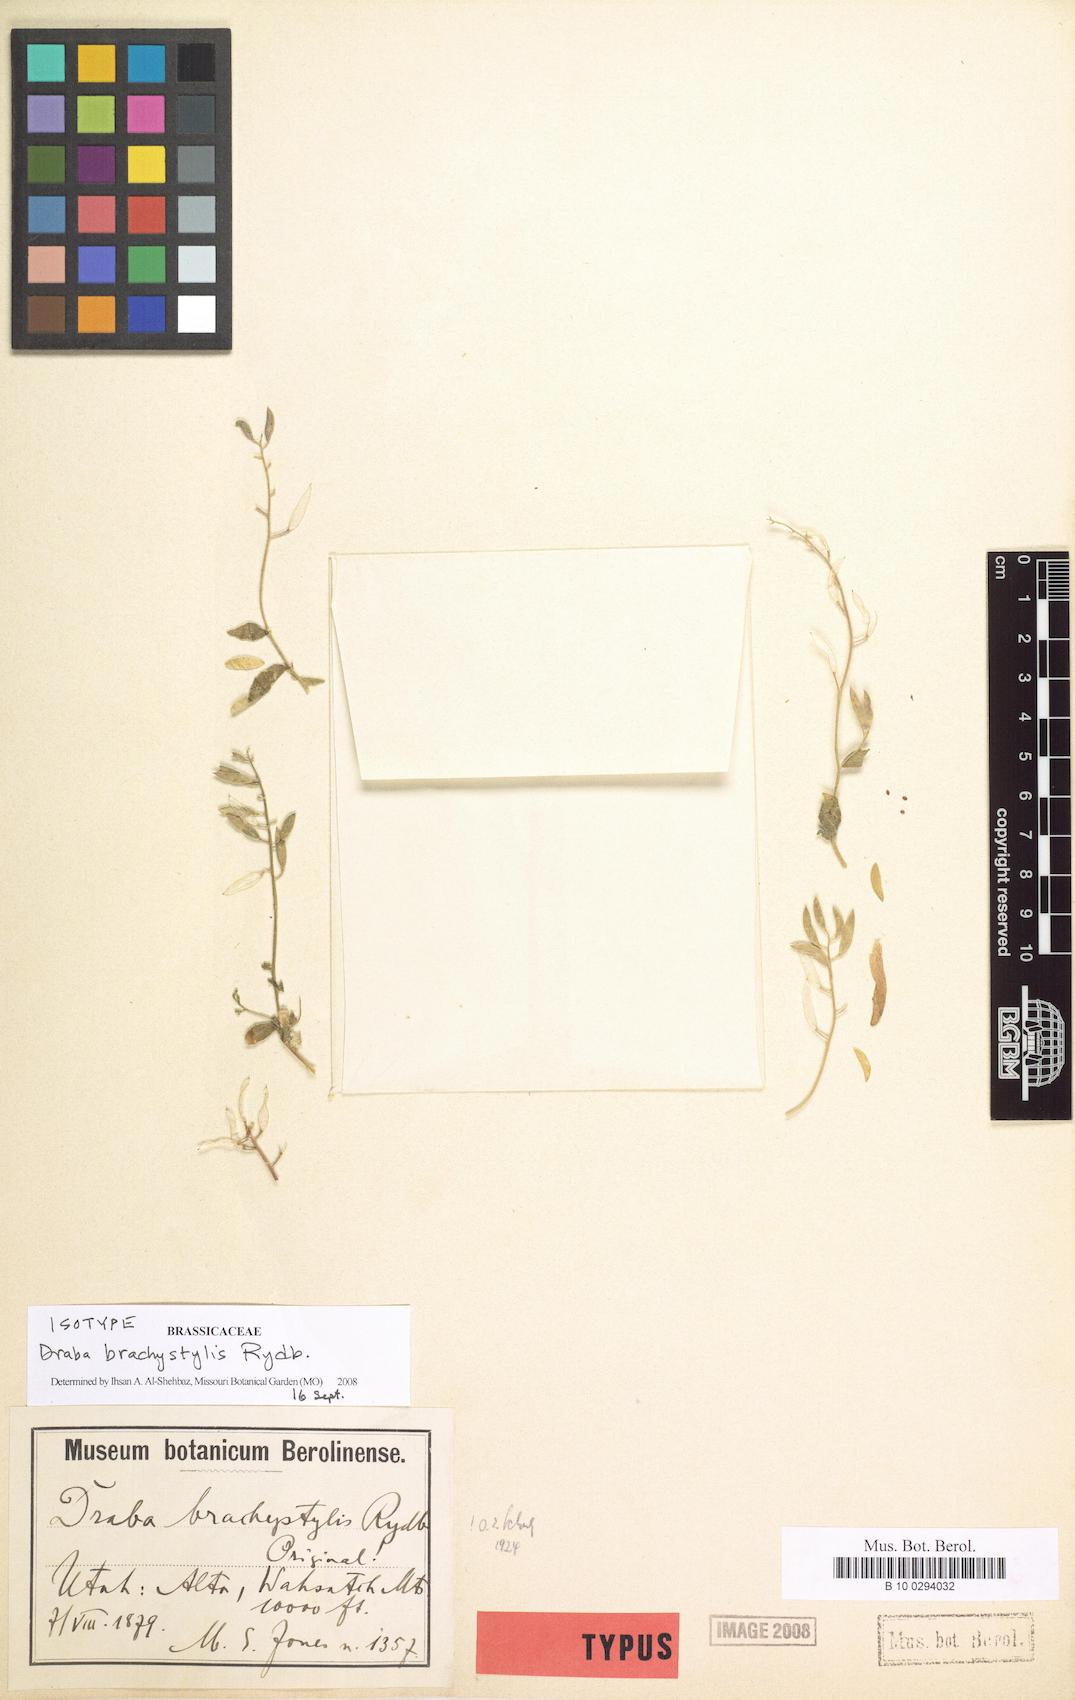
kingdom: Plantae
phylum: Tracheophyta
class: Magnoliopsida
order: Brassicales
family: Brassicaceae
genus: Draba
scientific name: Draba brachystylis
